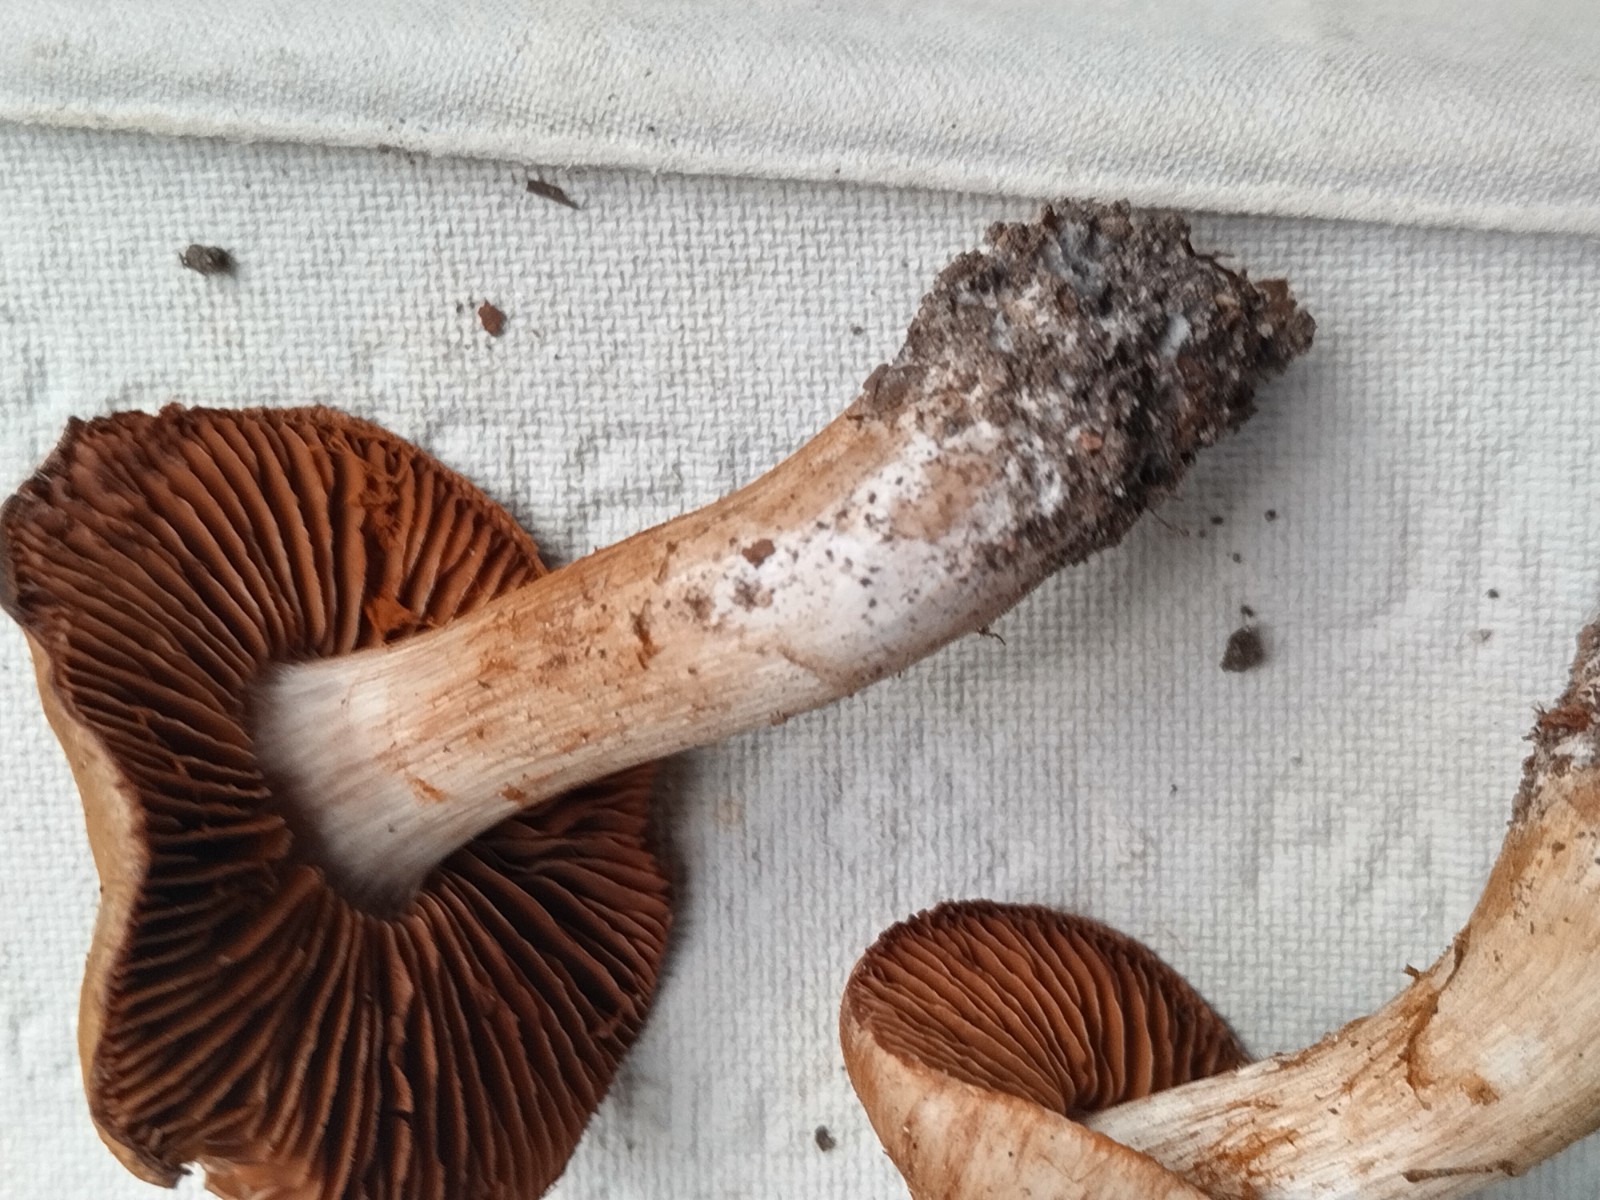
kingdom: Fungi
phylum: Basidiomycota
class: Agaricomycetes
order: Agaricales
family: Cortinariaceae
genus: Cortinarius
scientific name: Cortinarius
